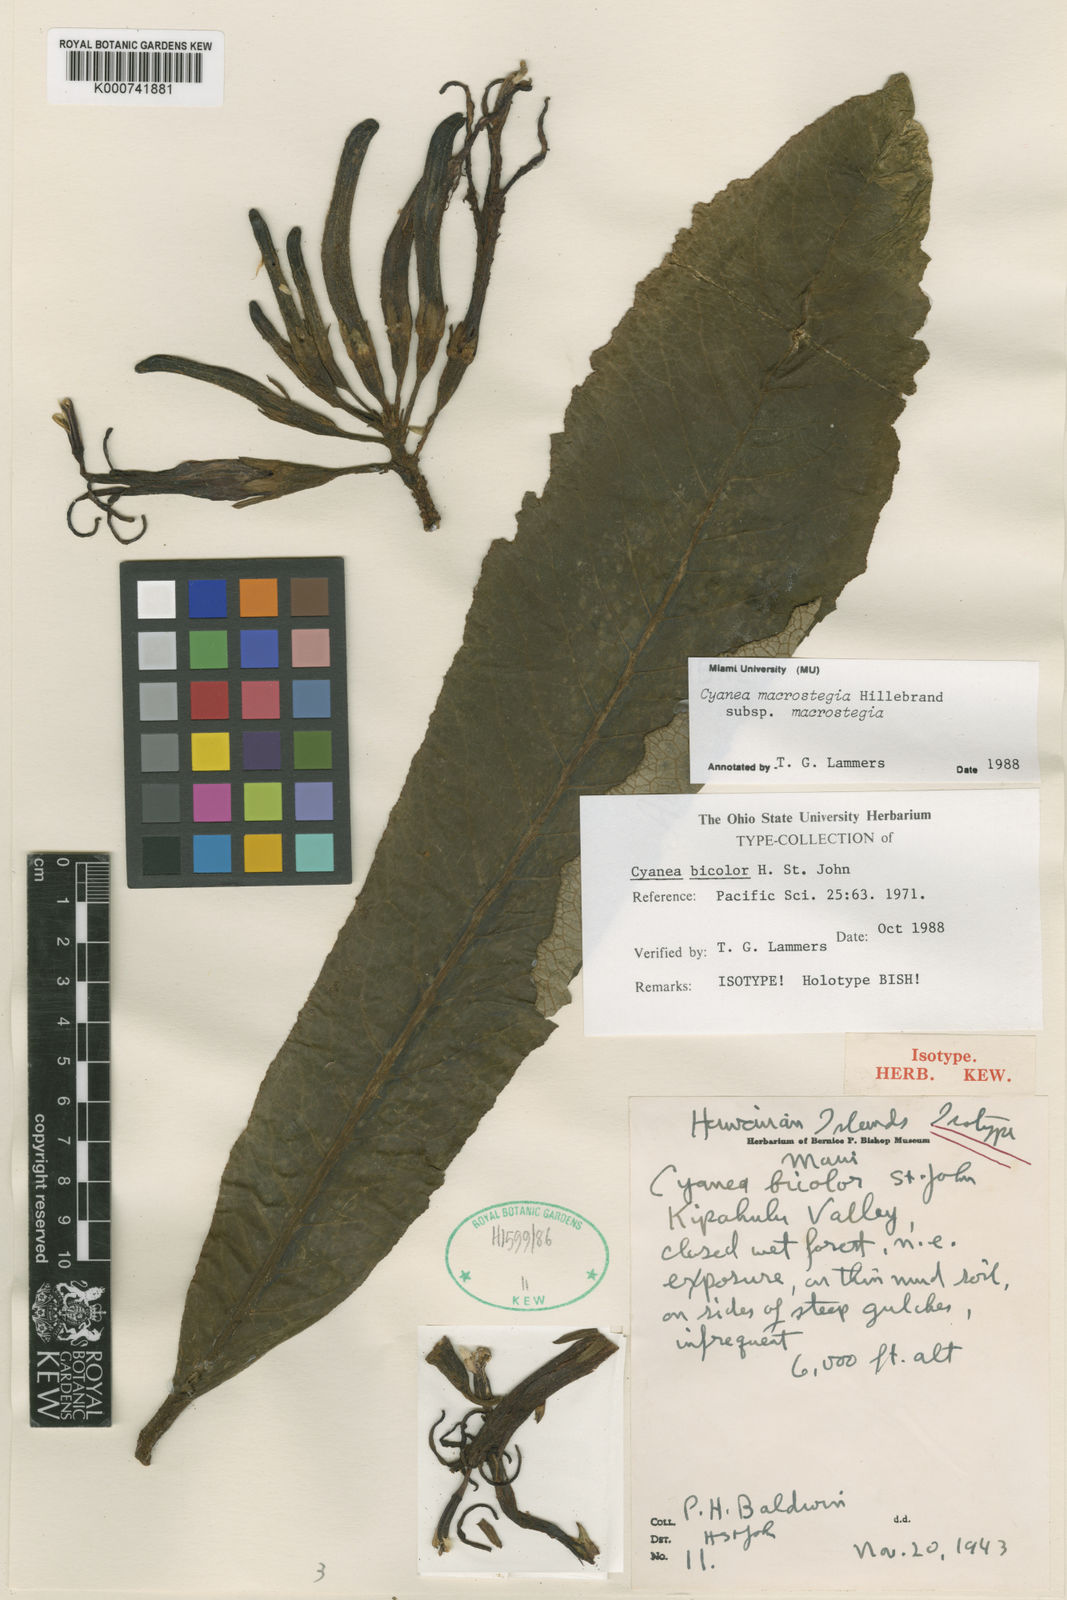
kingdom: Plantae
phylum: Tracheophyta
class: Magnoliopsida
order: Asterales
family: Campanulaceae
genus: Cyanea
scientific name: Cyanea macrostegia
